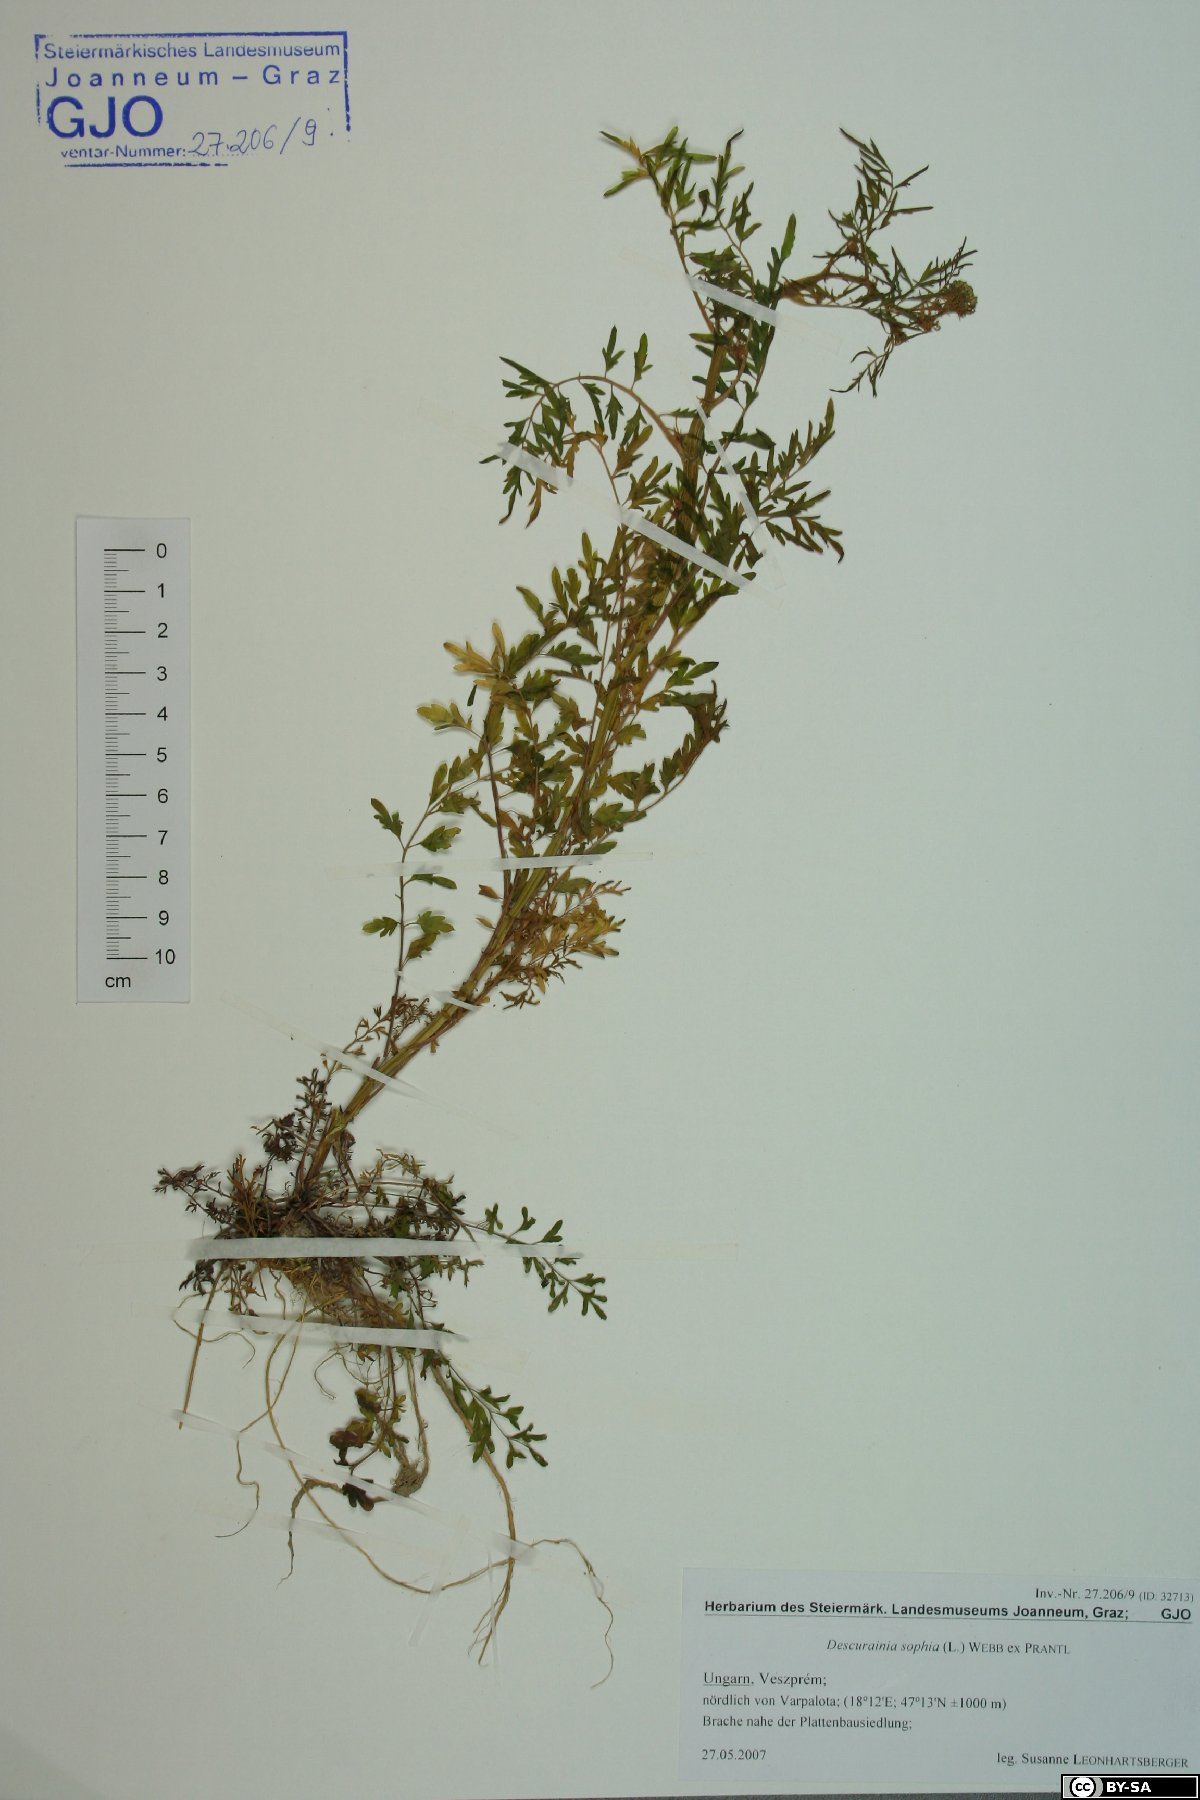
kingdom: Plantae
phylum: Tracheophyta
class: Magnoliopsida
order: Brassicales
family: Brassicaceae
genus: Descurainia
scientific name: Descurainia sophia
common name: Flixweed
